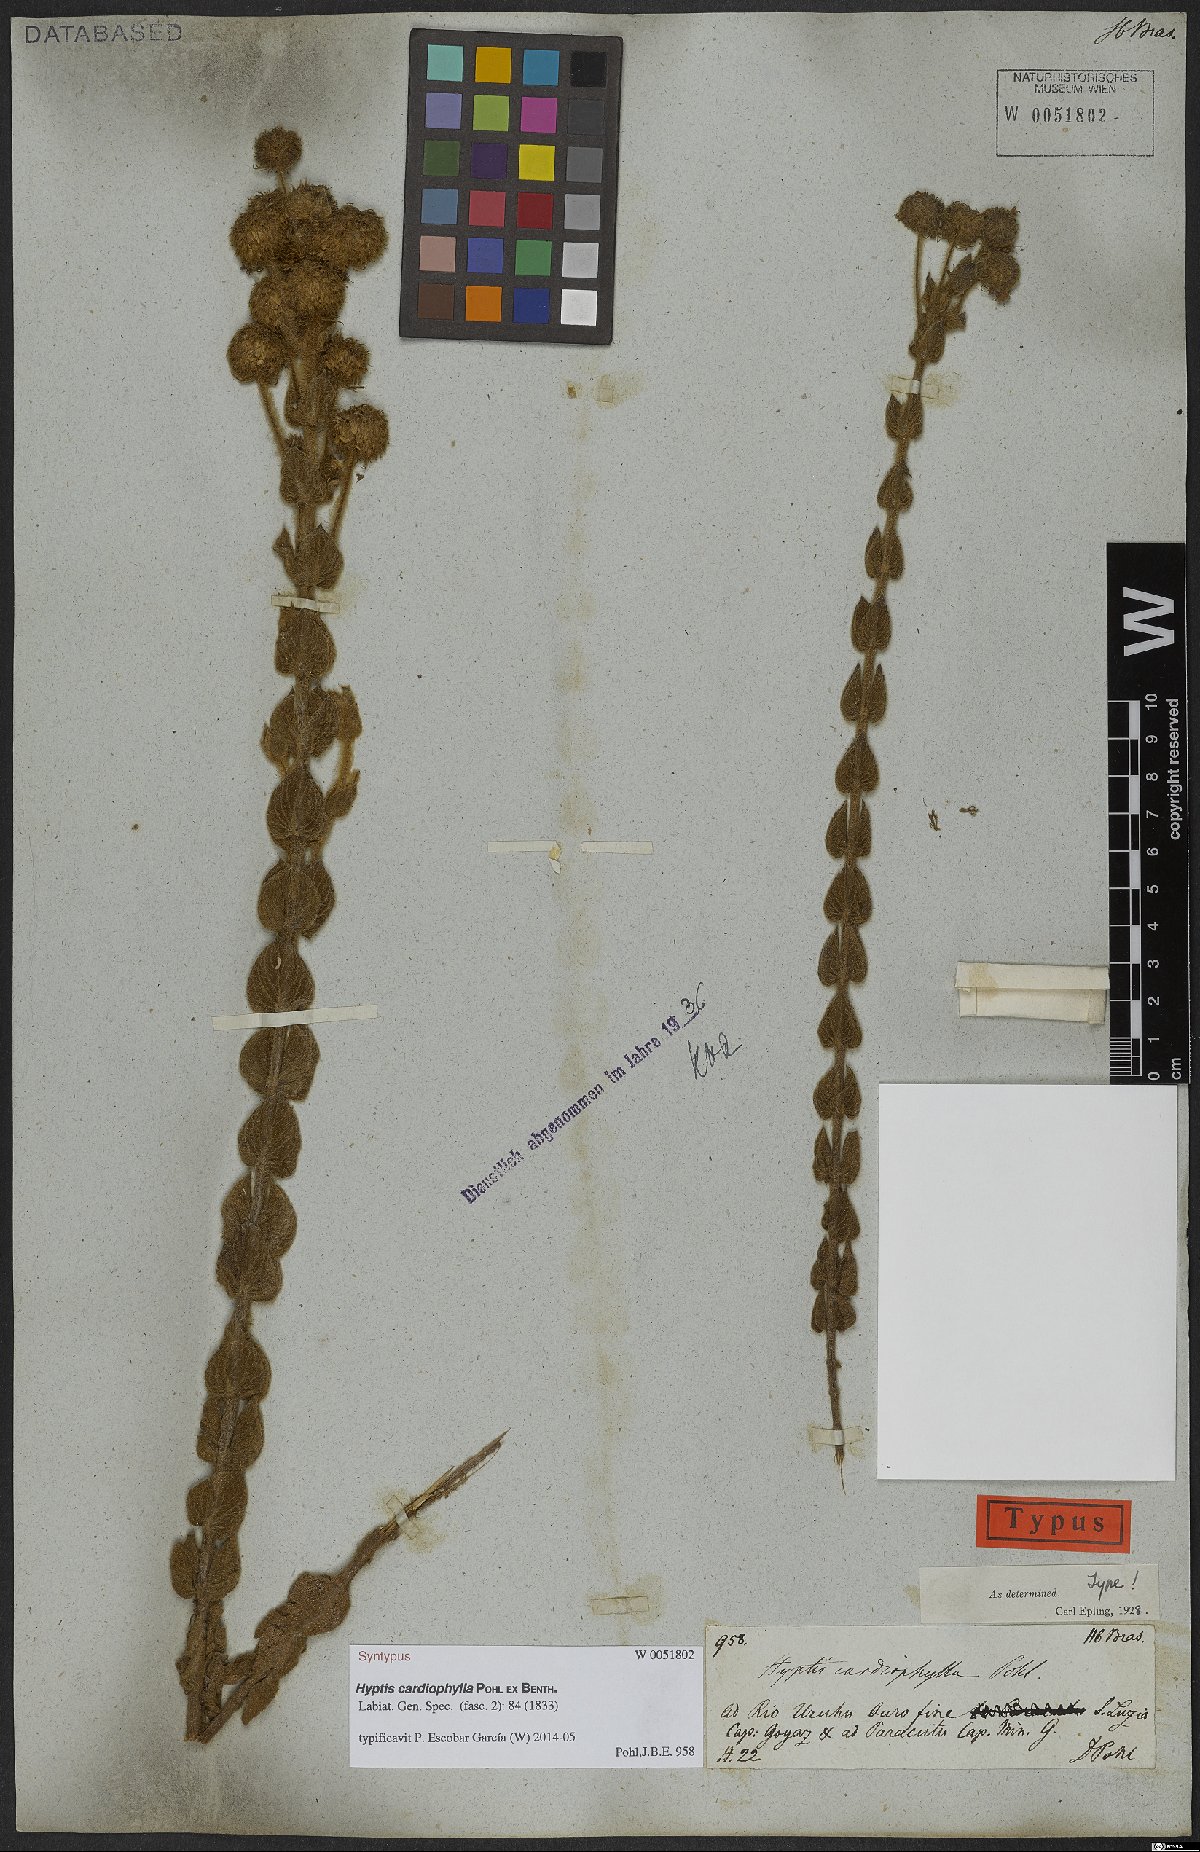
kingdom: Plantae
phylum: Tracheophyta
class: Magnoliopsida
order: Lamiales
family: Lamiaceae
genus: Cyanocephalus
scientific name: Cyanocephalus cardiophyllus
